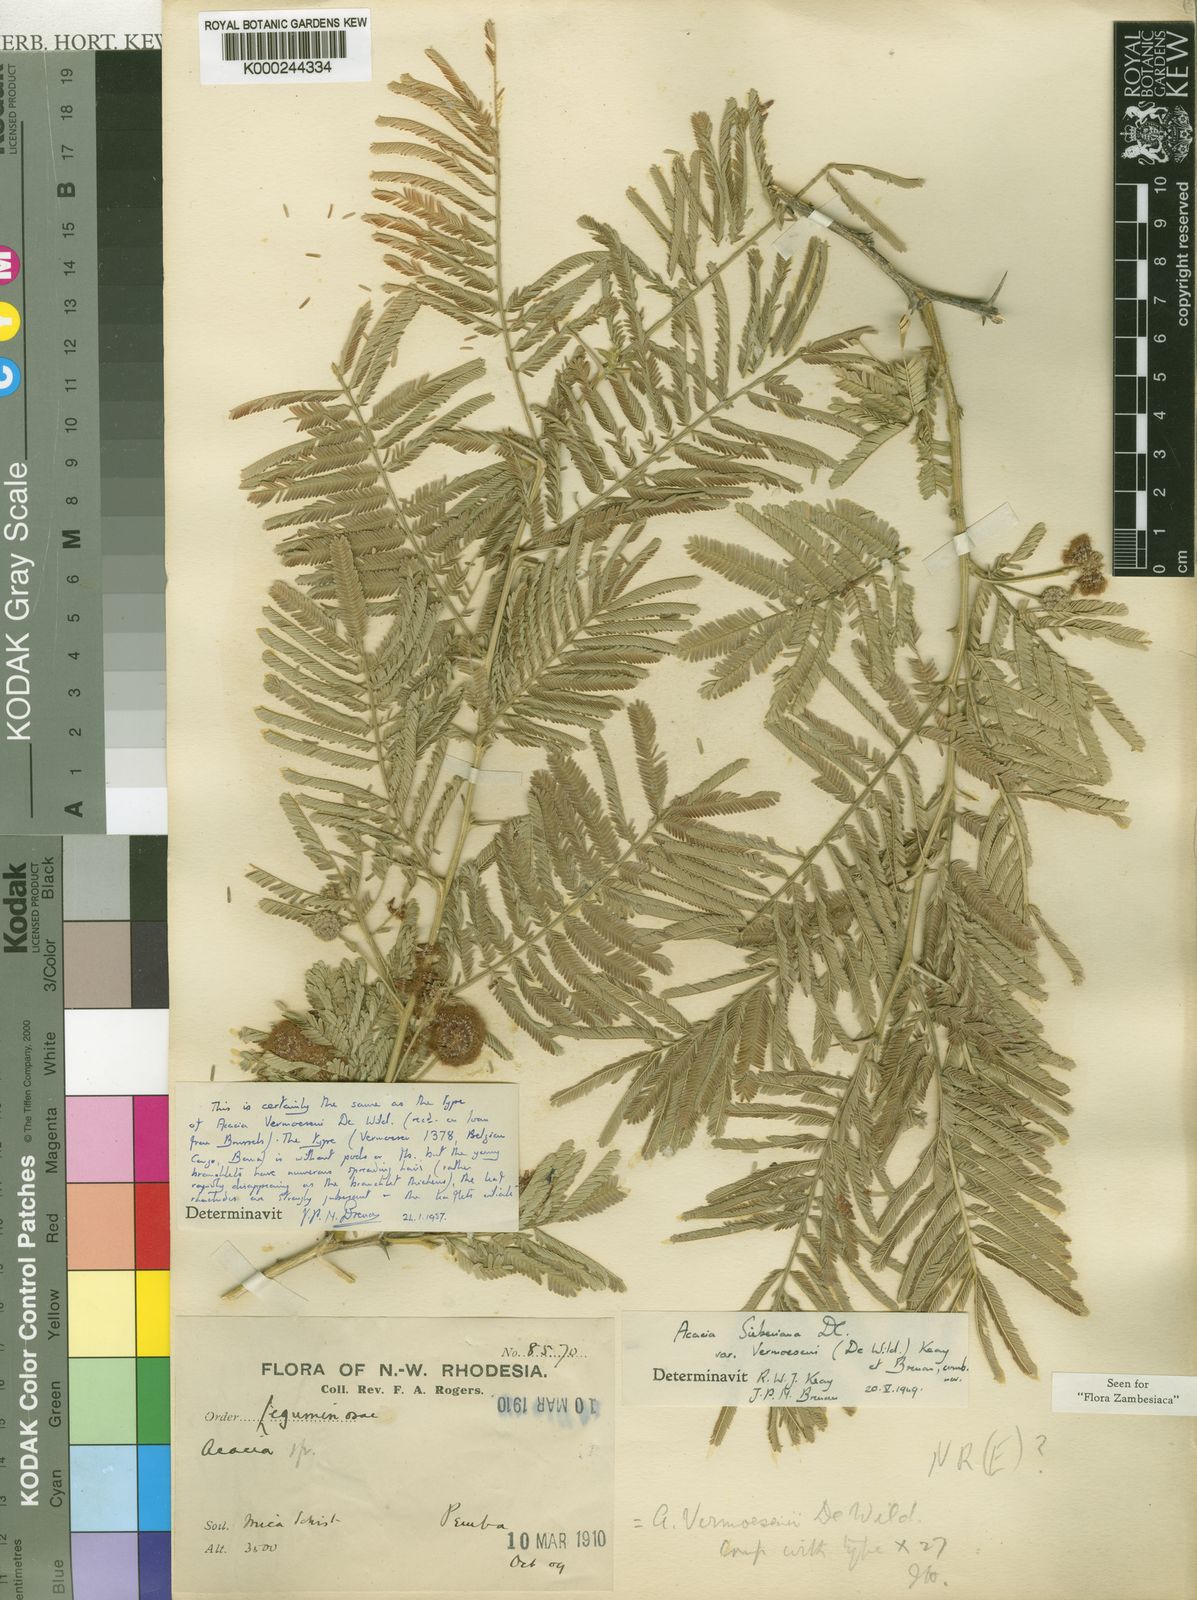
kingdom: Plantae
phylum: Tracheophyta
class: Magnoliopsida
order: Fabales
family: Fabaceae
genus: Vachellia
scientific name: Vachellia sieberiana
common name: Flat-topped thorn
